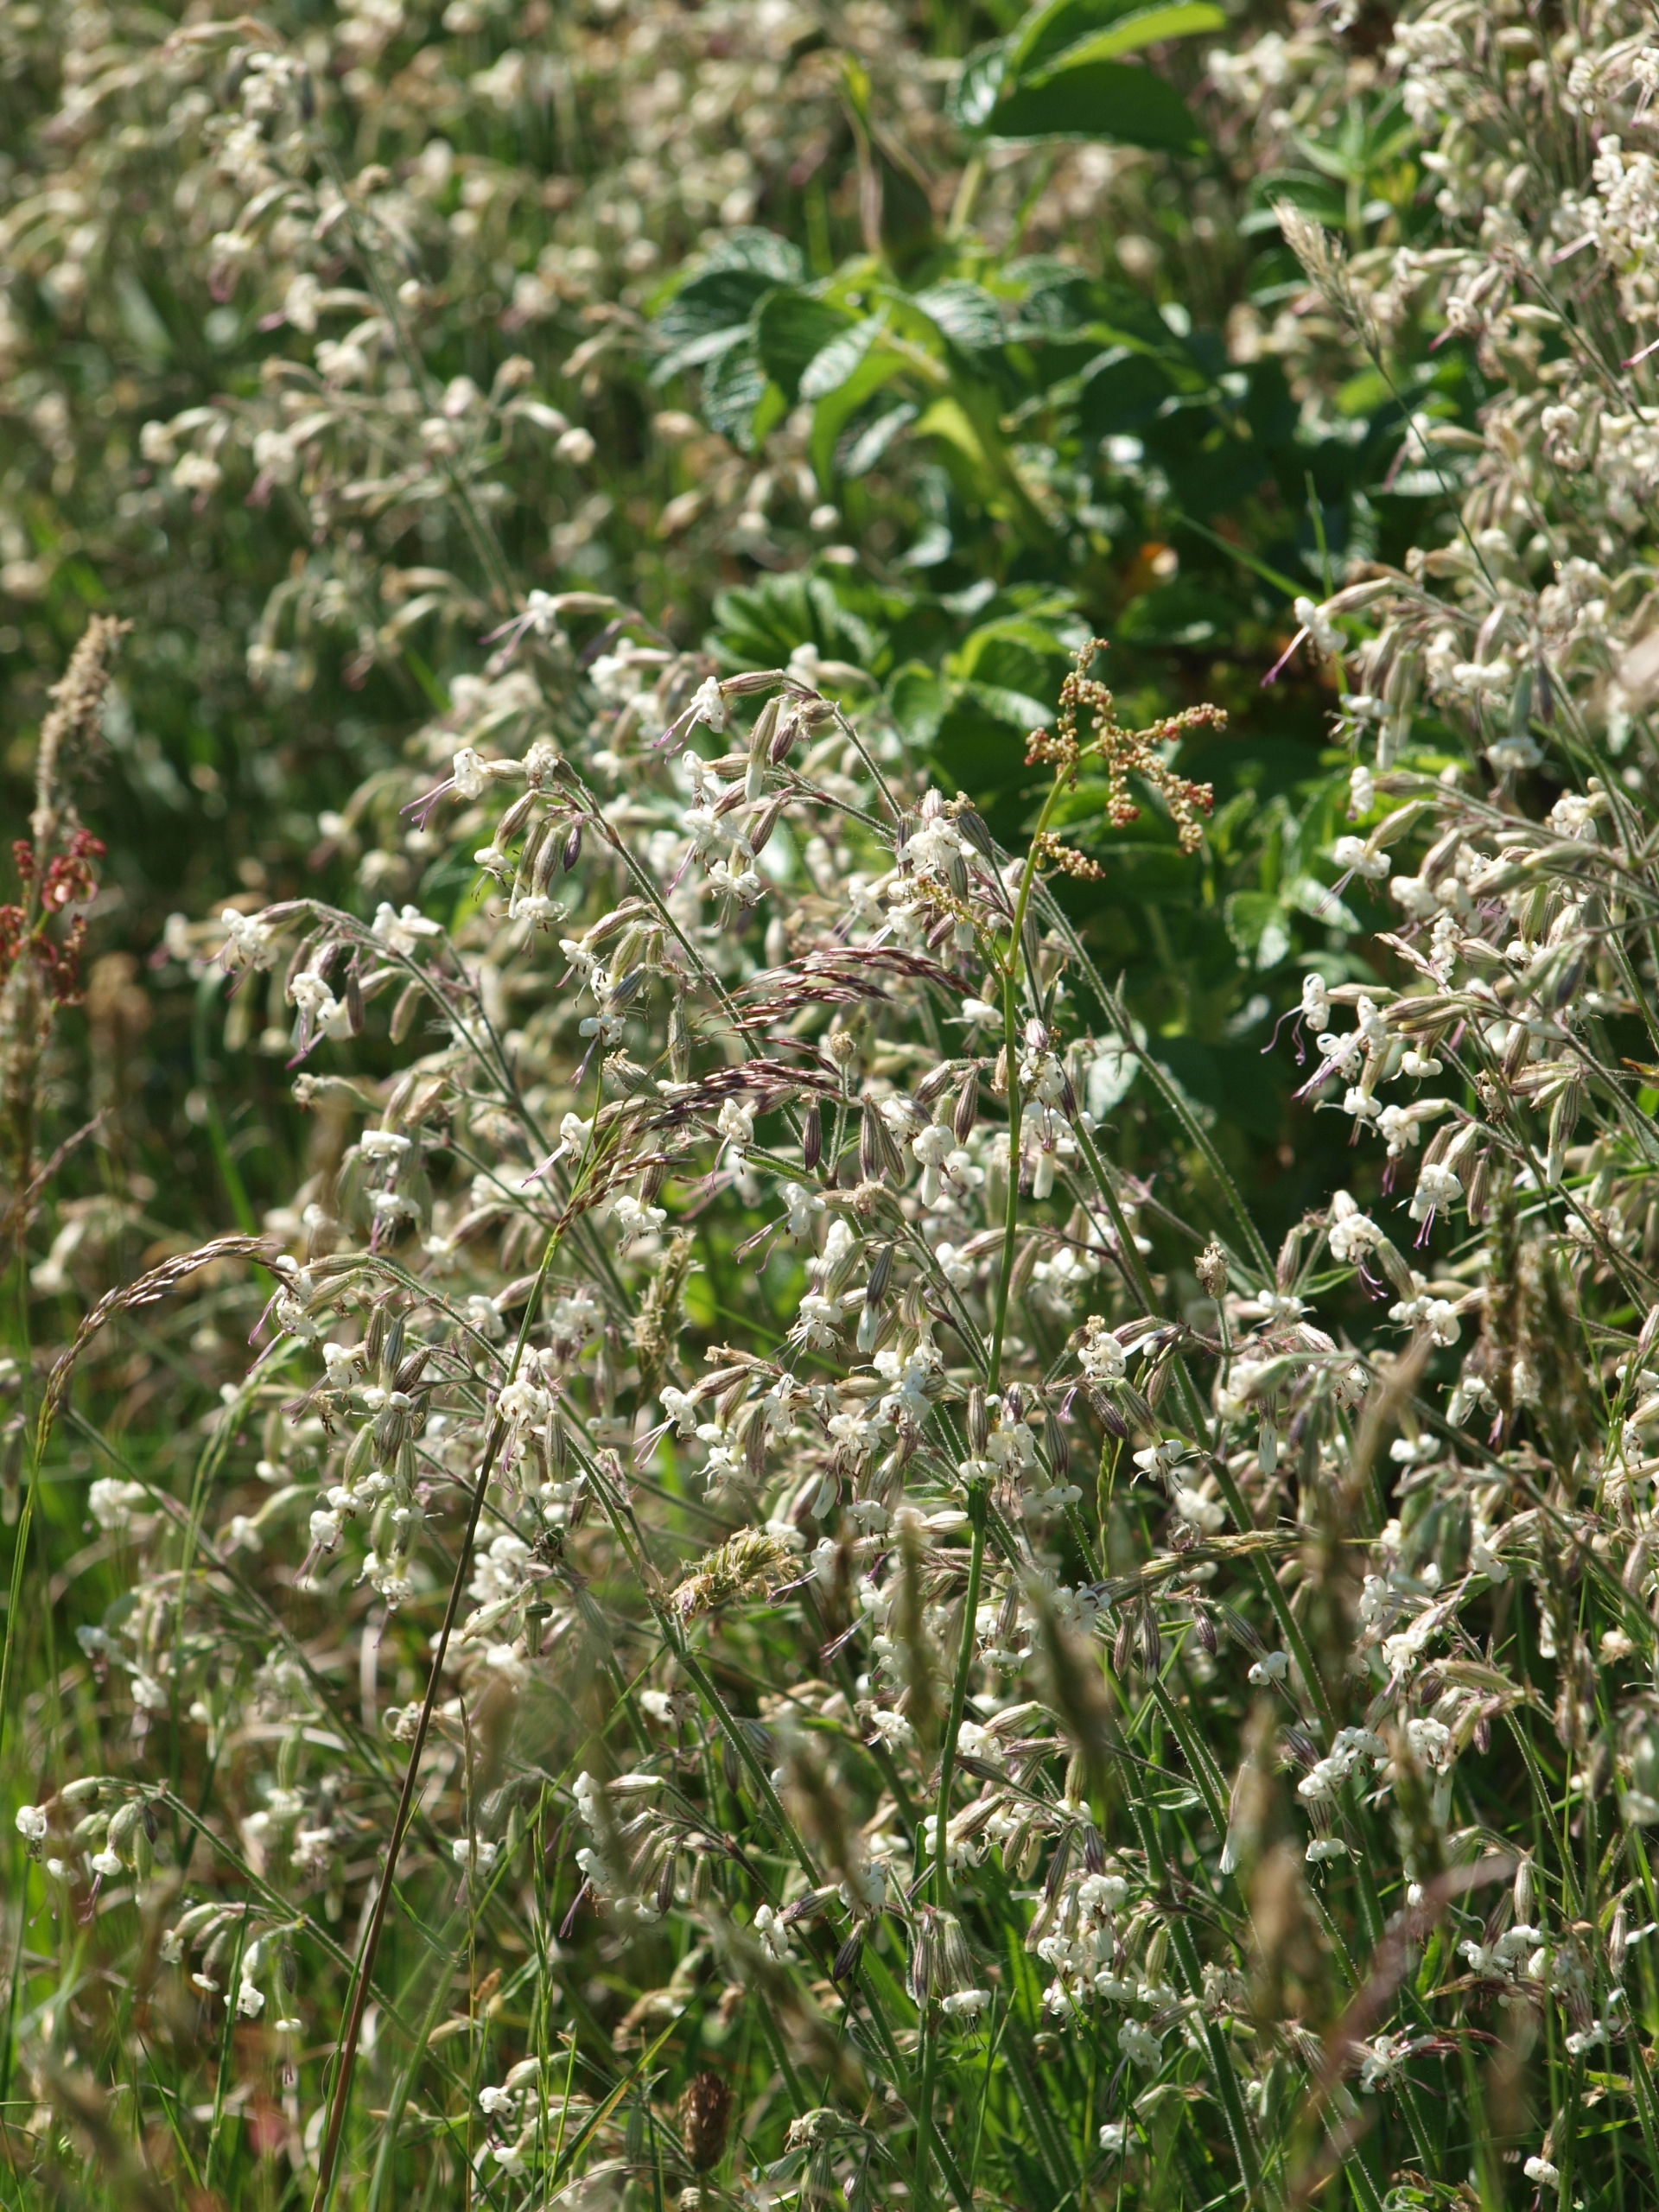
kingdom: Plantae
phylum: Tracheophyta
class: Magnoliopsida
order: Caryophyllales
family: Caryophyllaceae
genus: Silene
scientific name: Silene nutans
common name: Nikkende limurt
